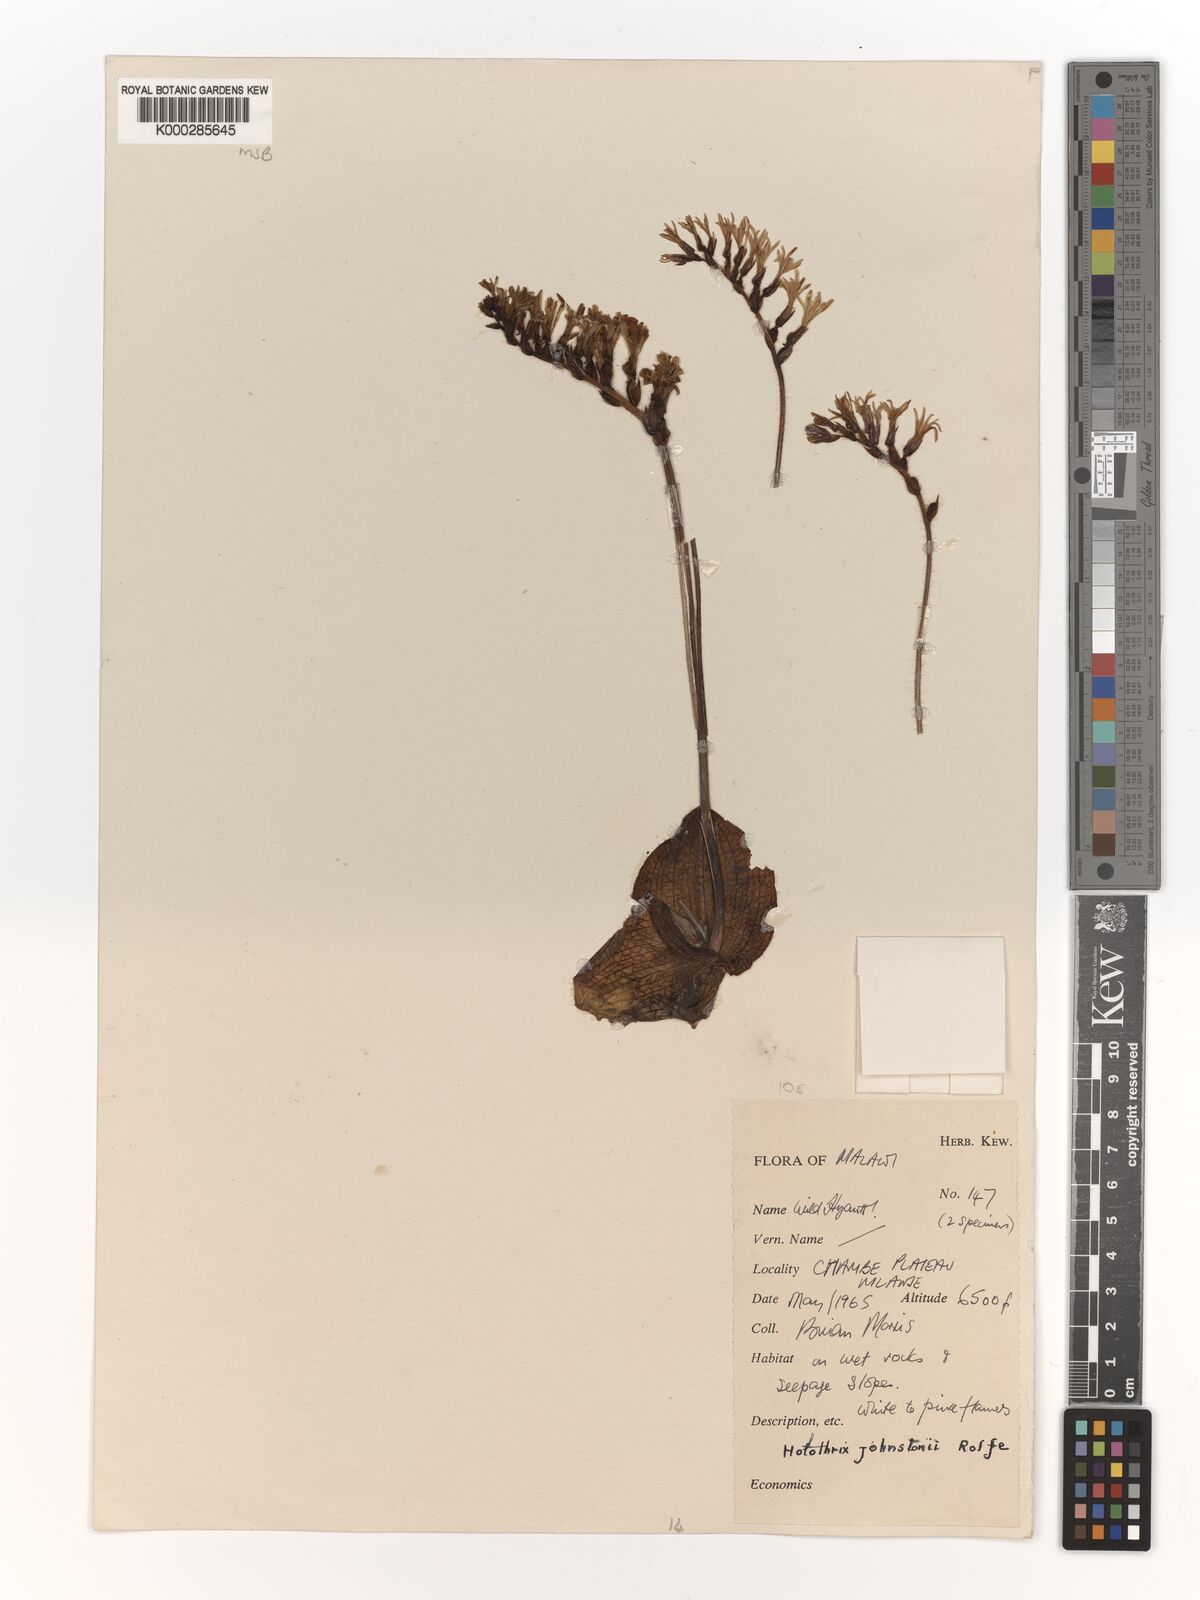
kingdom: Plantae
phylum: Tracheophyta
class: Liliopsida
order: Asparagales
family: Orchidaceae
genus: Holothrix
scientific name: Holothrix johnstonii
